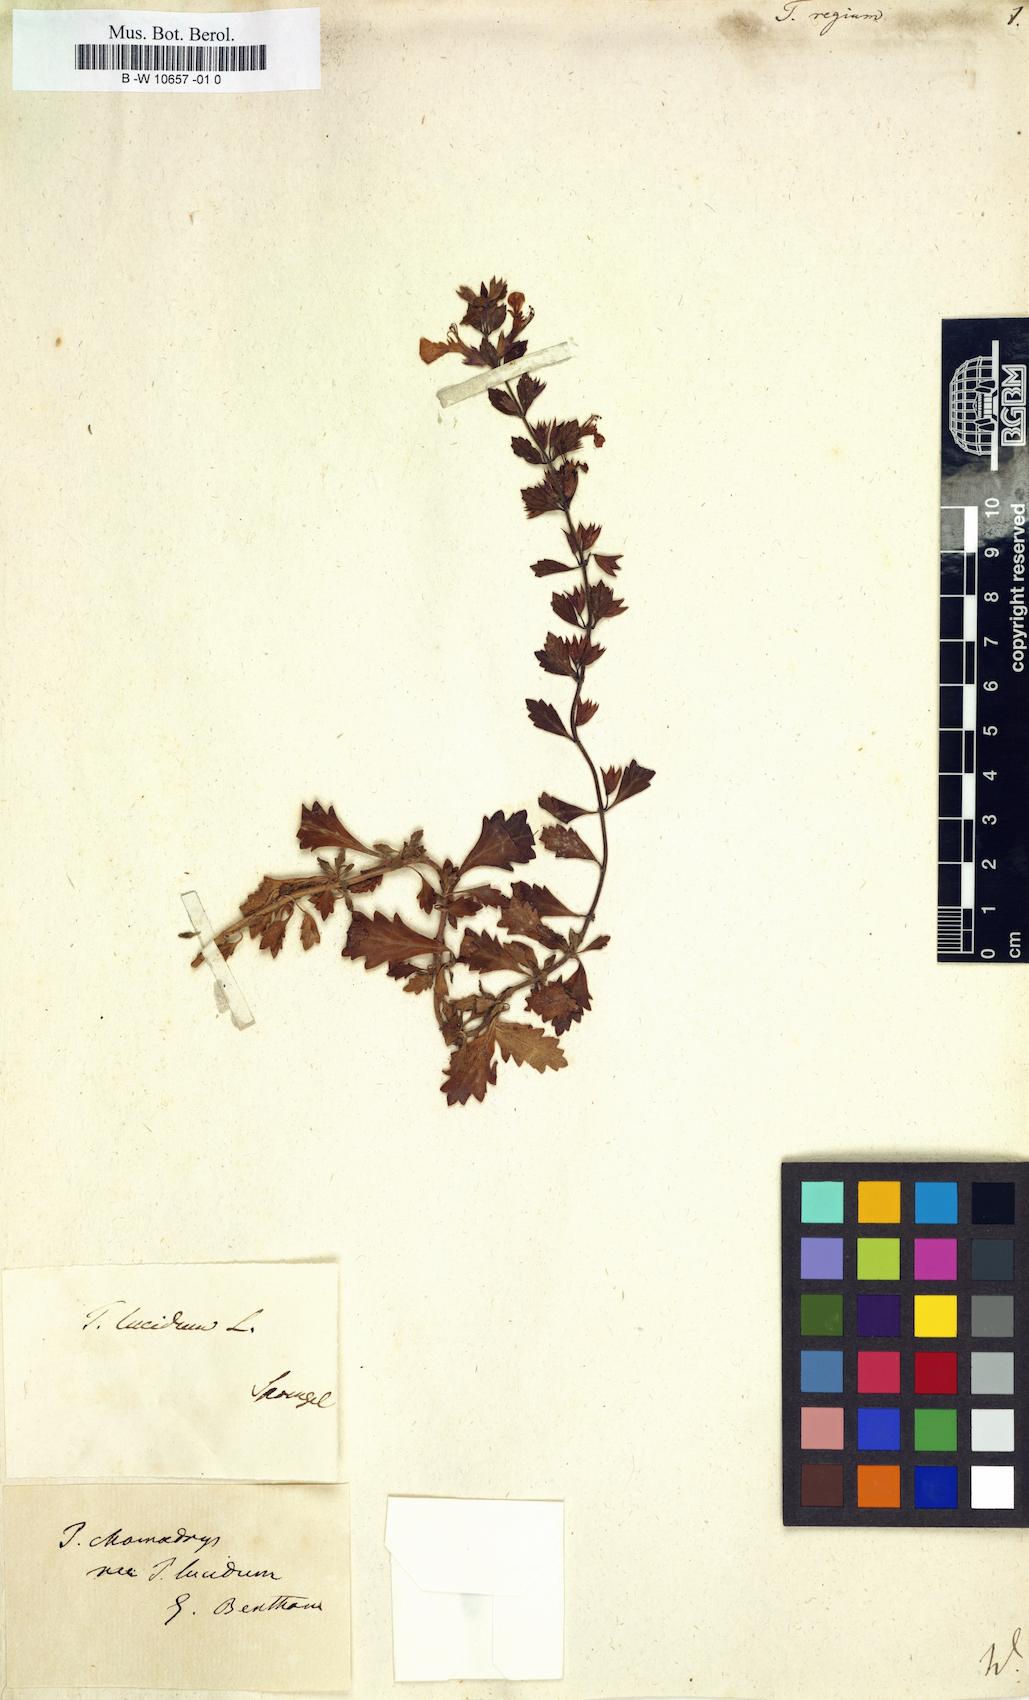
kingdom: Plantae
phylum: Tracheophyta
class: Magnoliopsida
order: Lamiales
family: Lamiaceae
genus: Teucrium
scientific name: Teucrium regium
